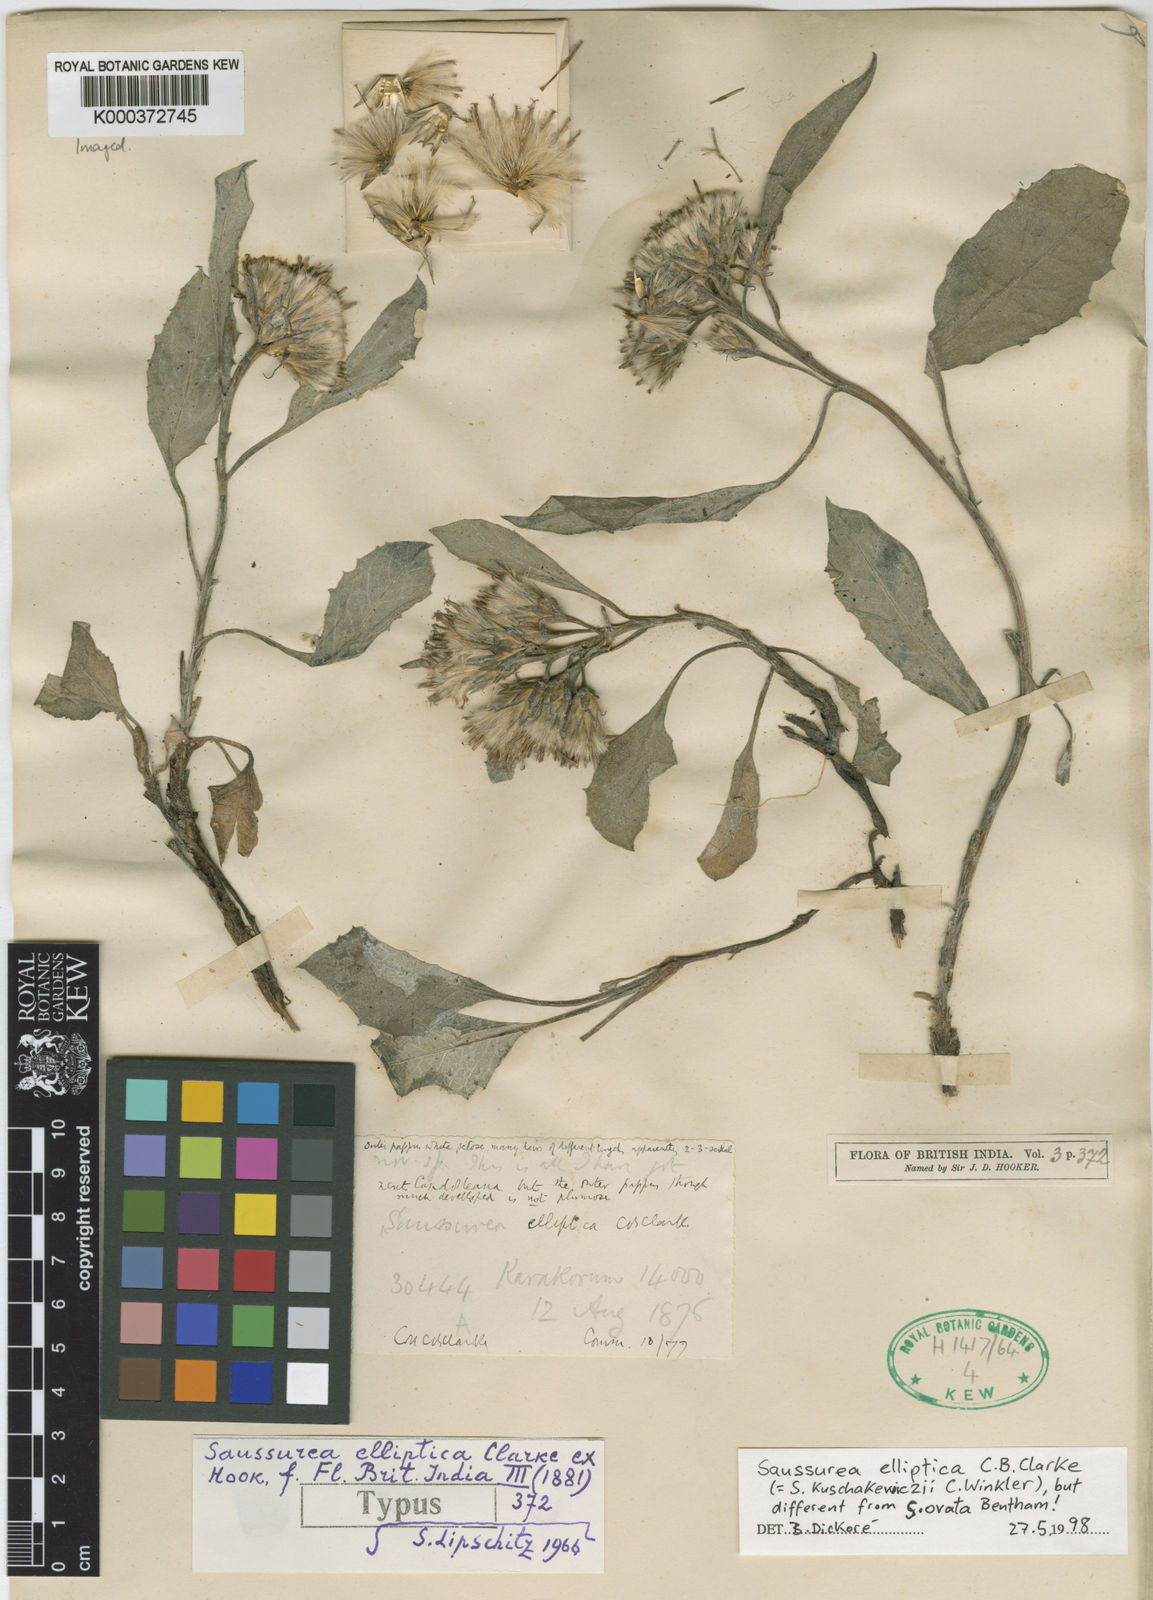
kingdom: Plantae
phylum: Tracheophyta
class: Magnoliopsida
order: Asterales
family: Asteraceae
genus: Saussurea
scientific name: Saussurea ovata
